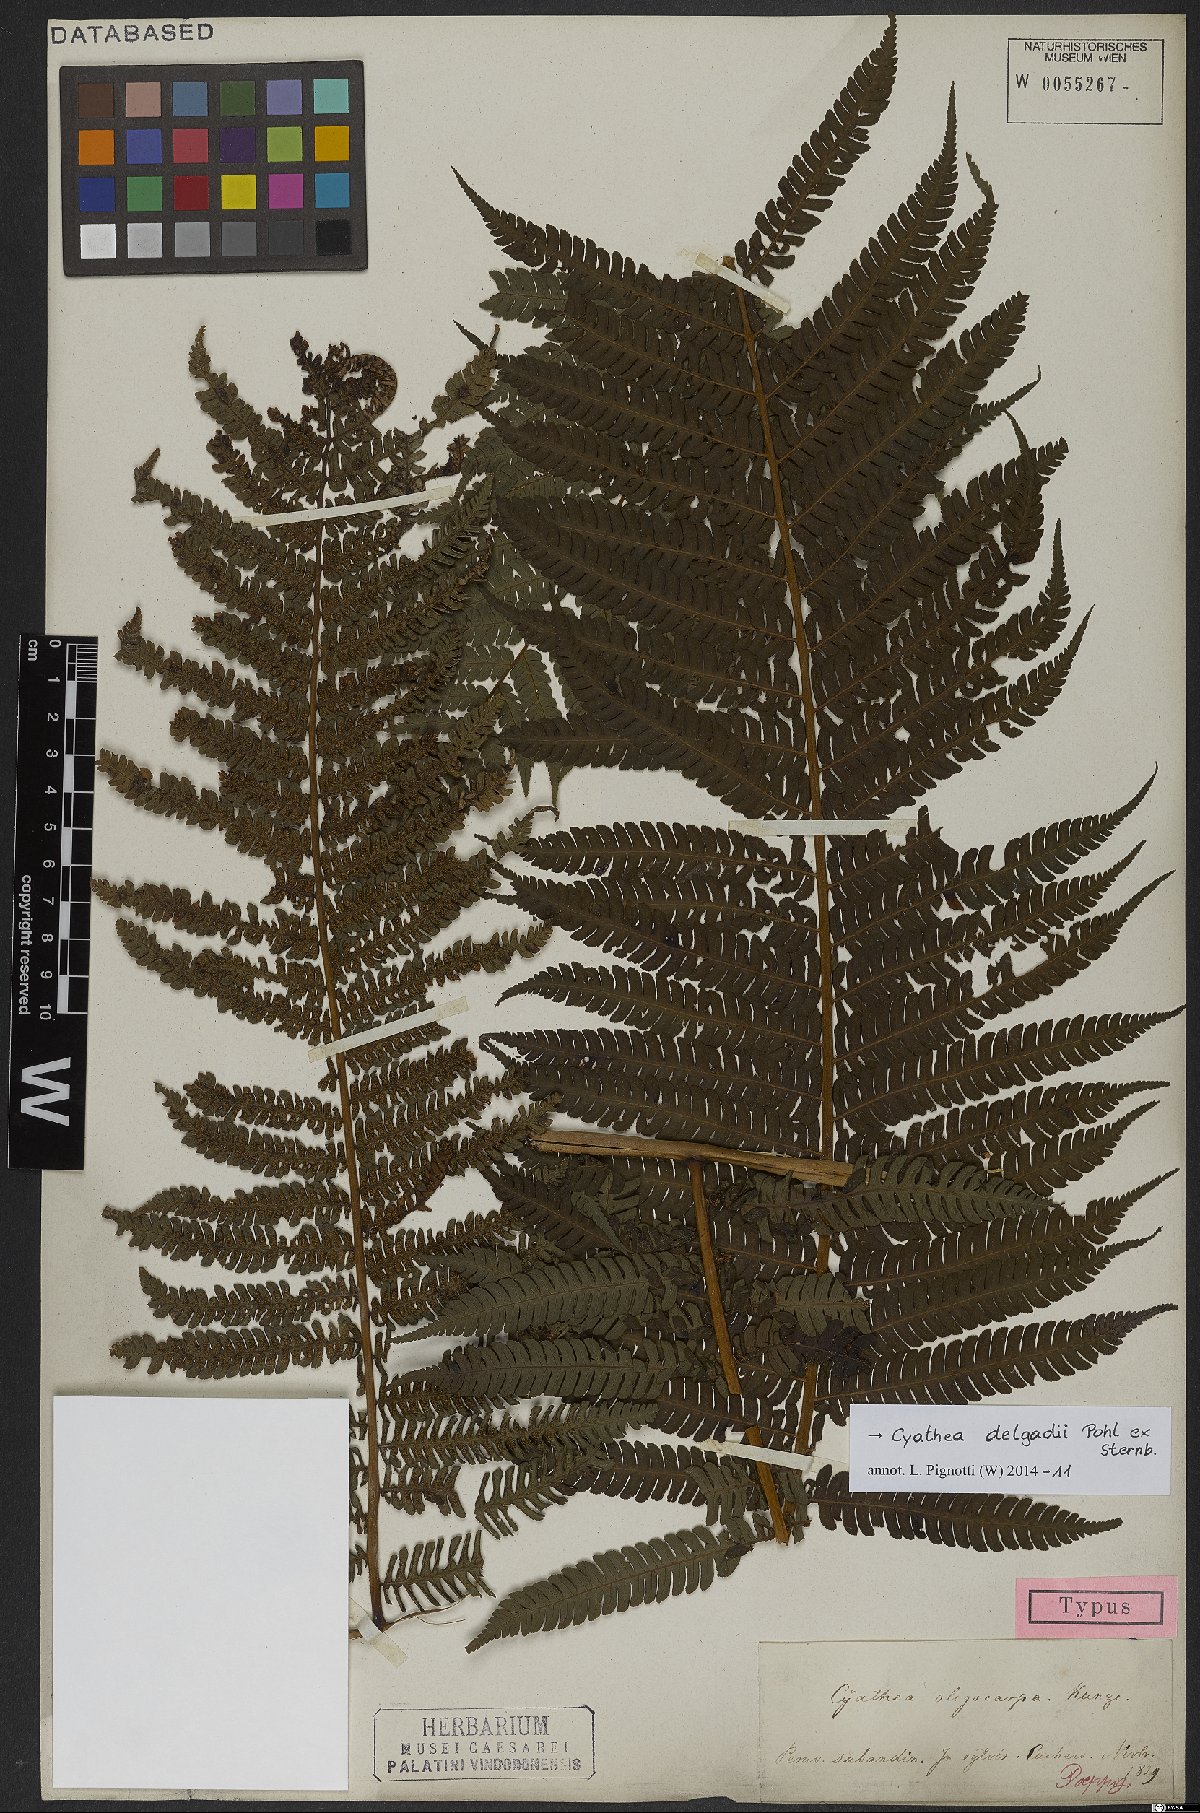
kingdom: Plantae
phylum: Tracheophyta
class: Polypodiopsida
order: Cyatheales
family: Cyatheaceae
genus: Cyathea
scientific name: Cyathea delgadii
